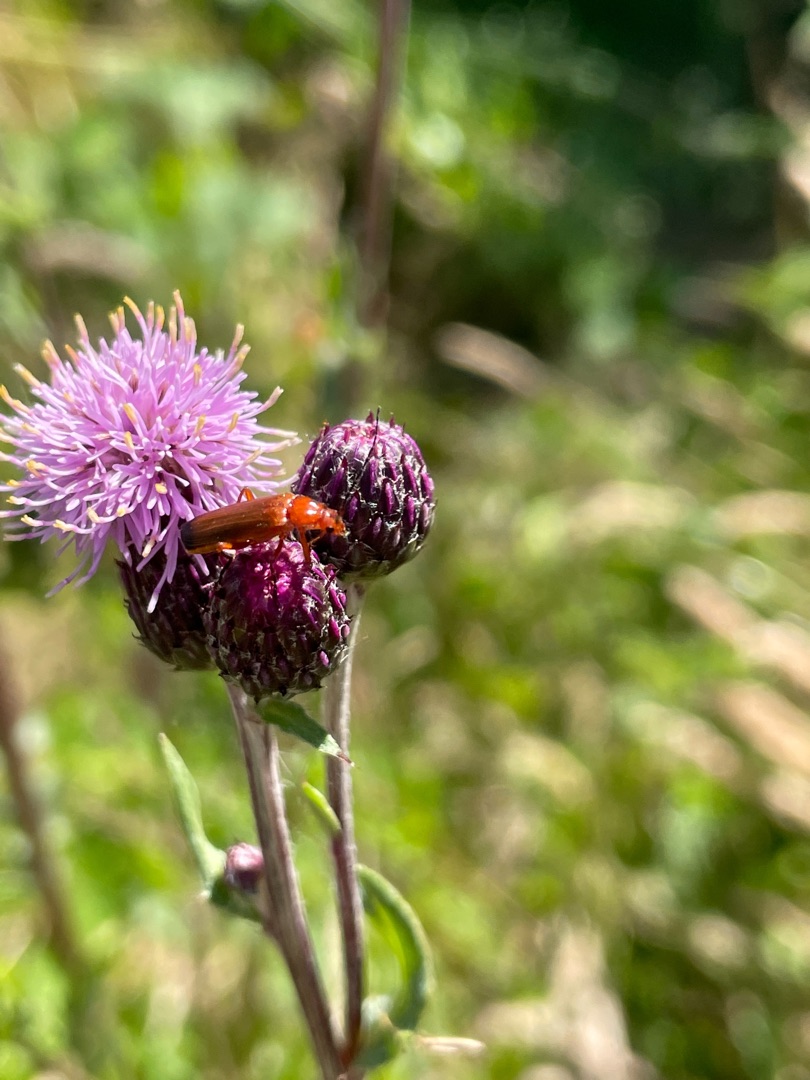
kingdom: Animalia
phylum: Arthropoda
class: Insecta
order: Coleoptera
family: Cantharidae
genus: Rhagonycha
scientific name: Rhagonycha fulva
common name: Præstebille
